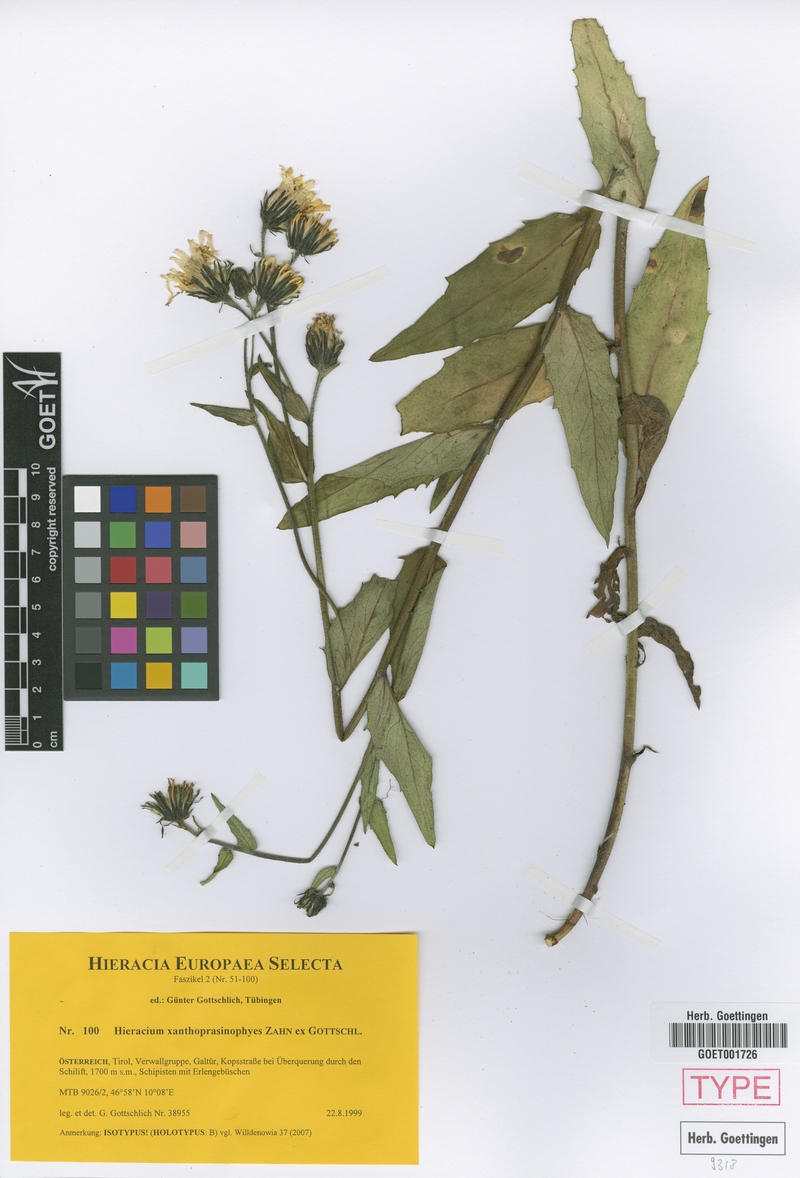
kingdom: Plantae
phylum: Tracheophyta
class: Magnoliopsida
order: Asterales
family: Asteraceae
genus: Hieracium
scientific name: Hieracium xanthoprasinophyes
